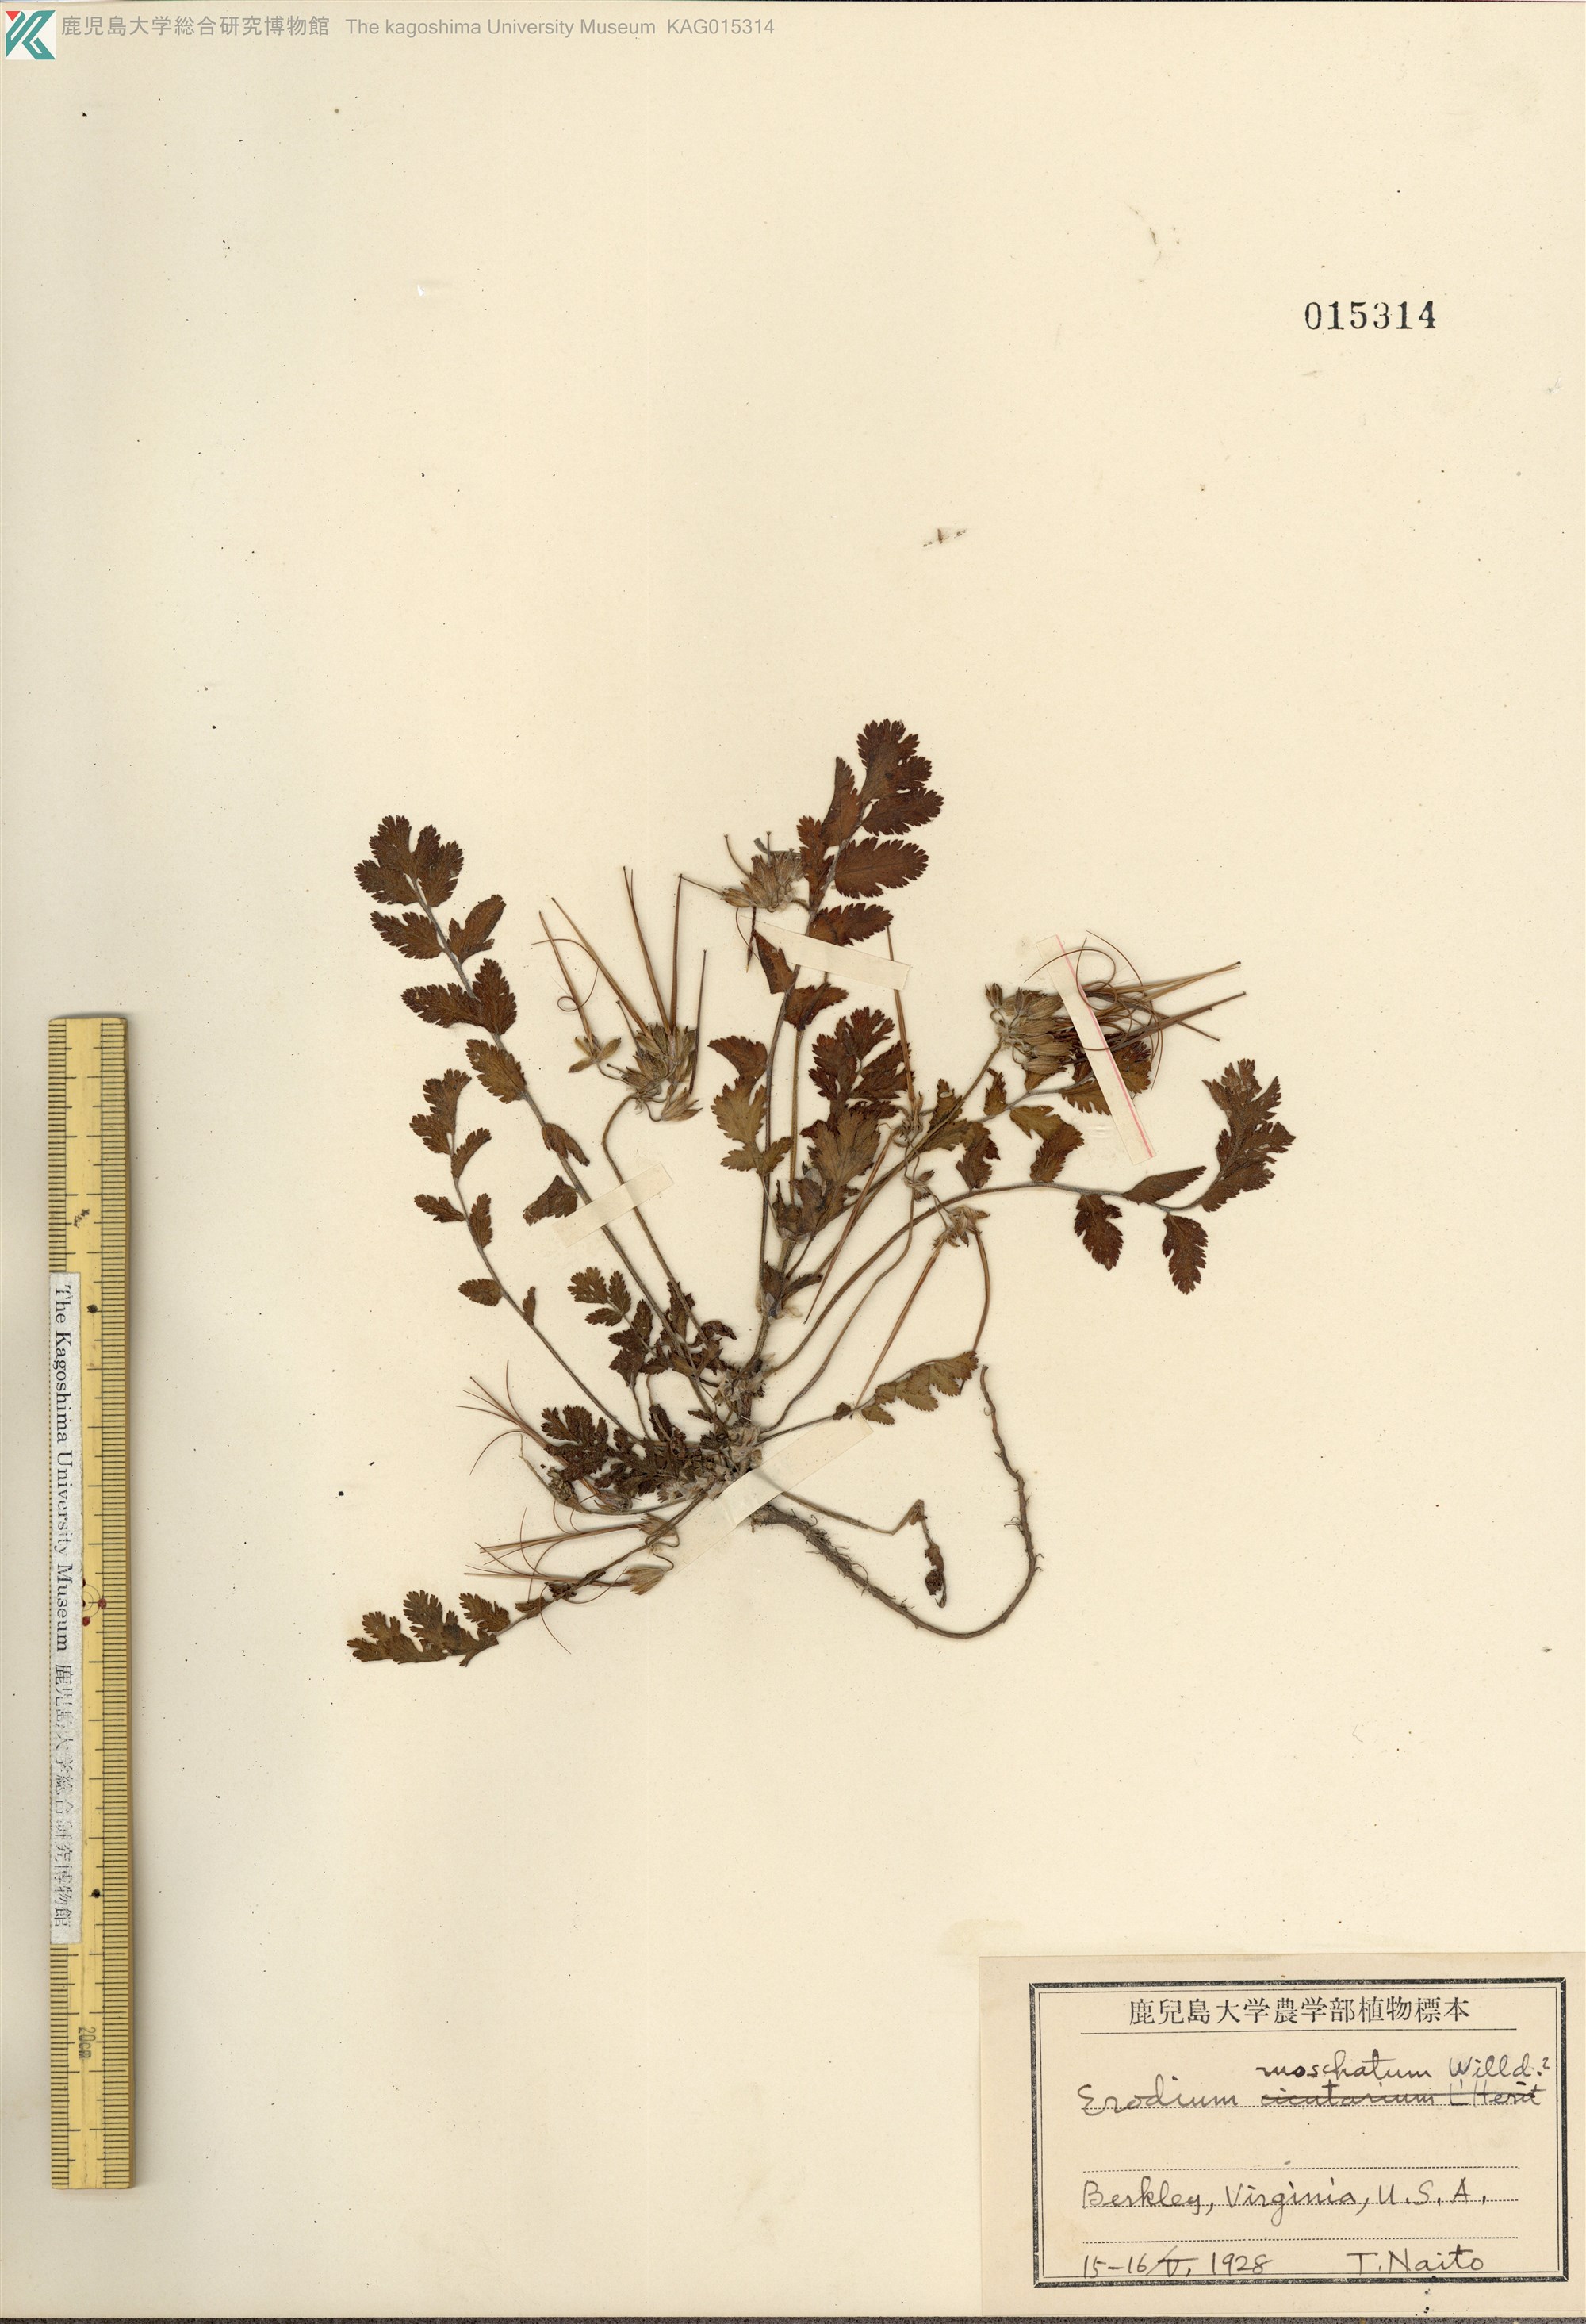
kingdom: Plantae
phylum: Tracheophyta
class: Magnoliopsida
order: Geraniales
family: Geraniaceae
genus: Erodium
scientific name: Erodium moschatum
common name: Musk stork's-bill
